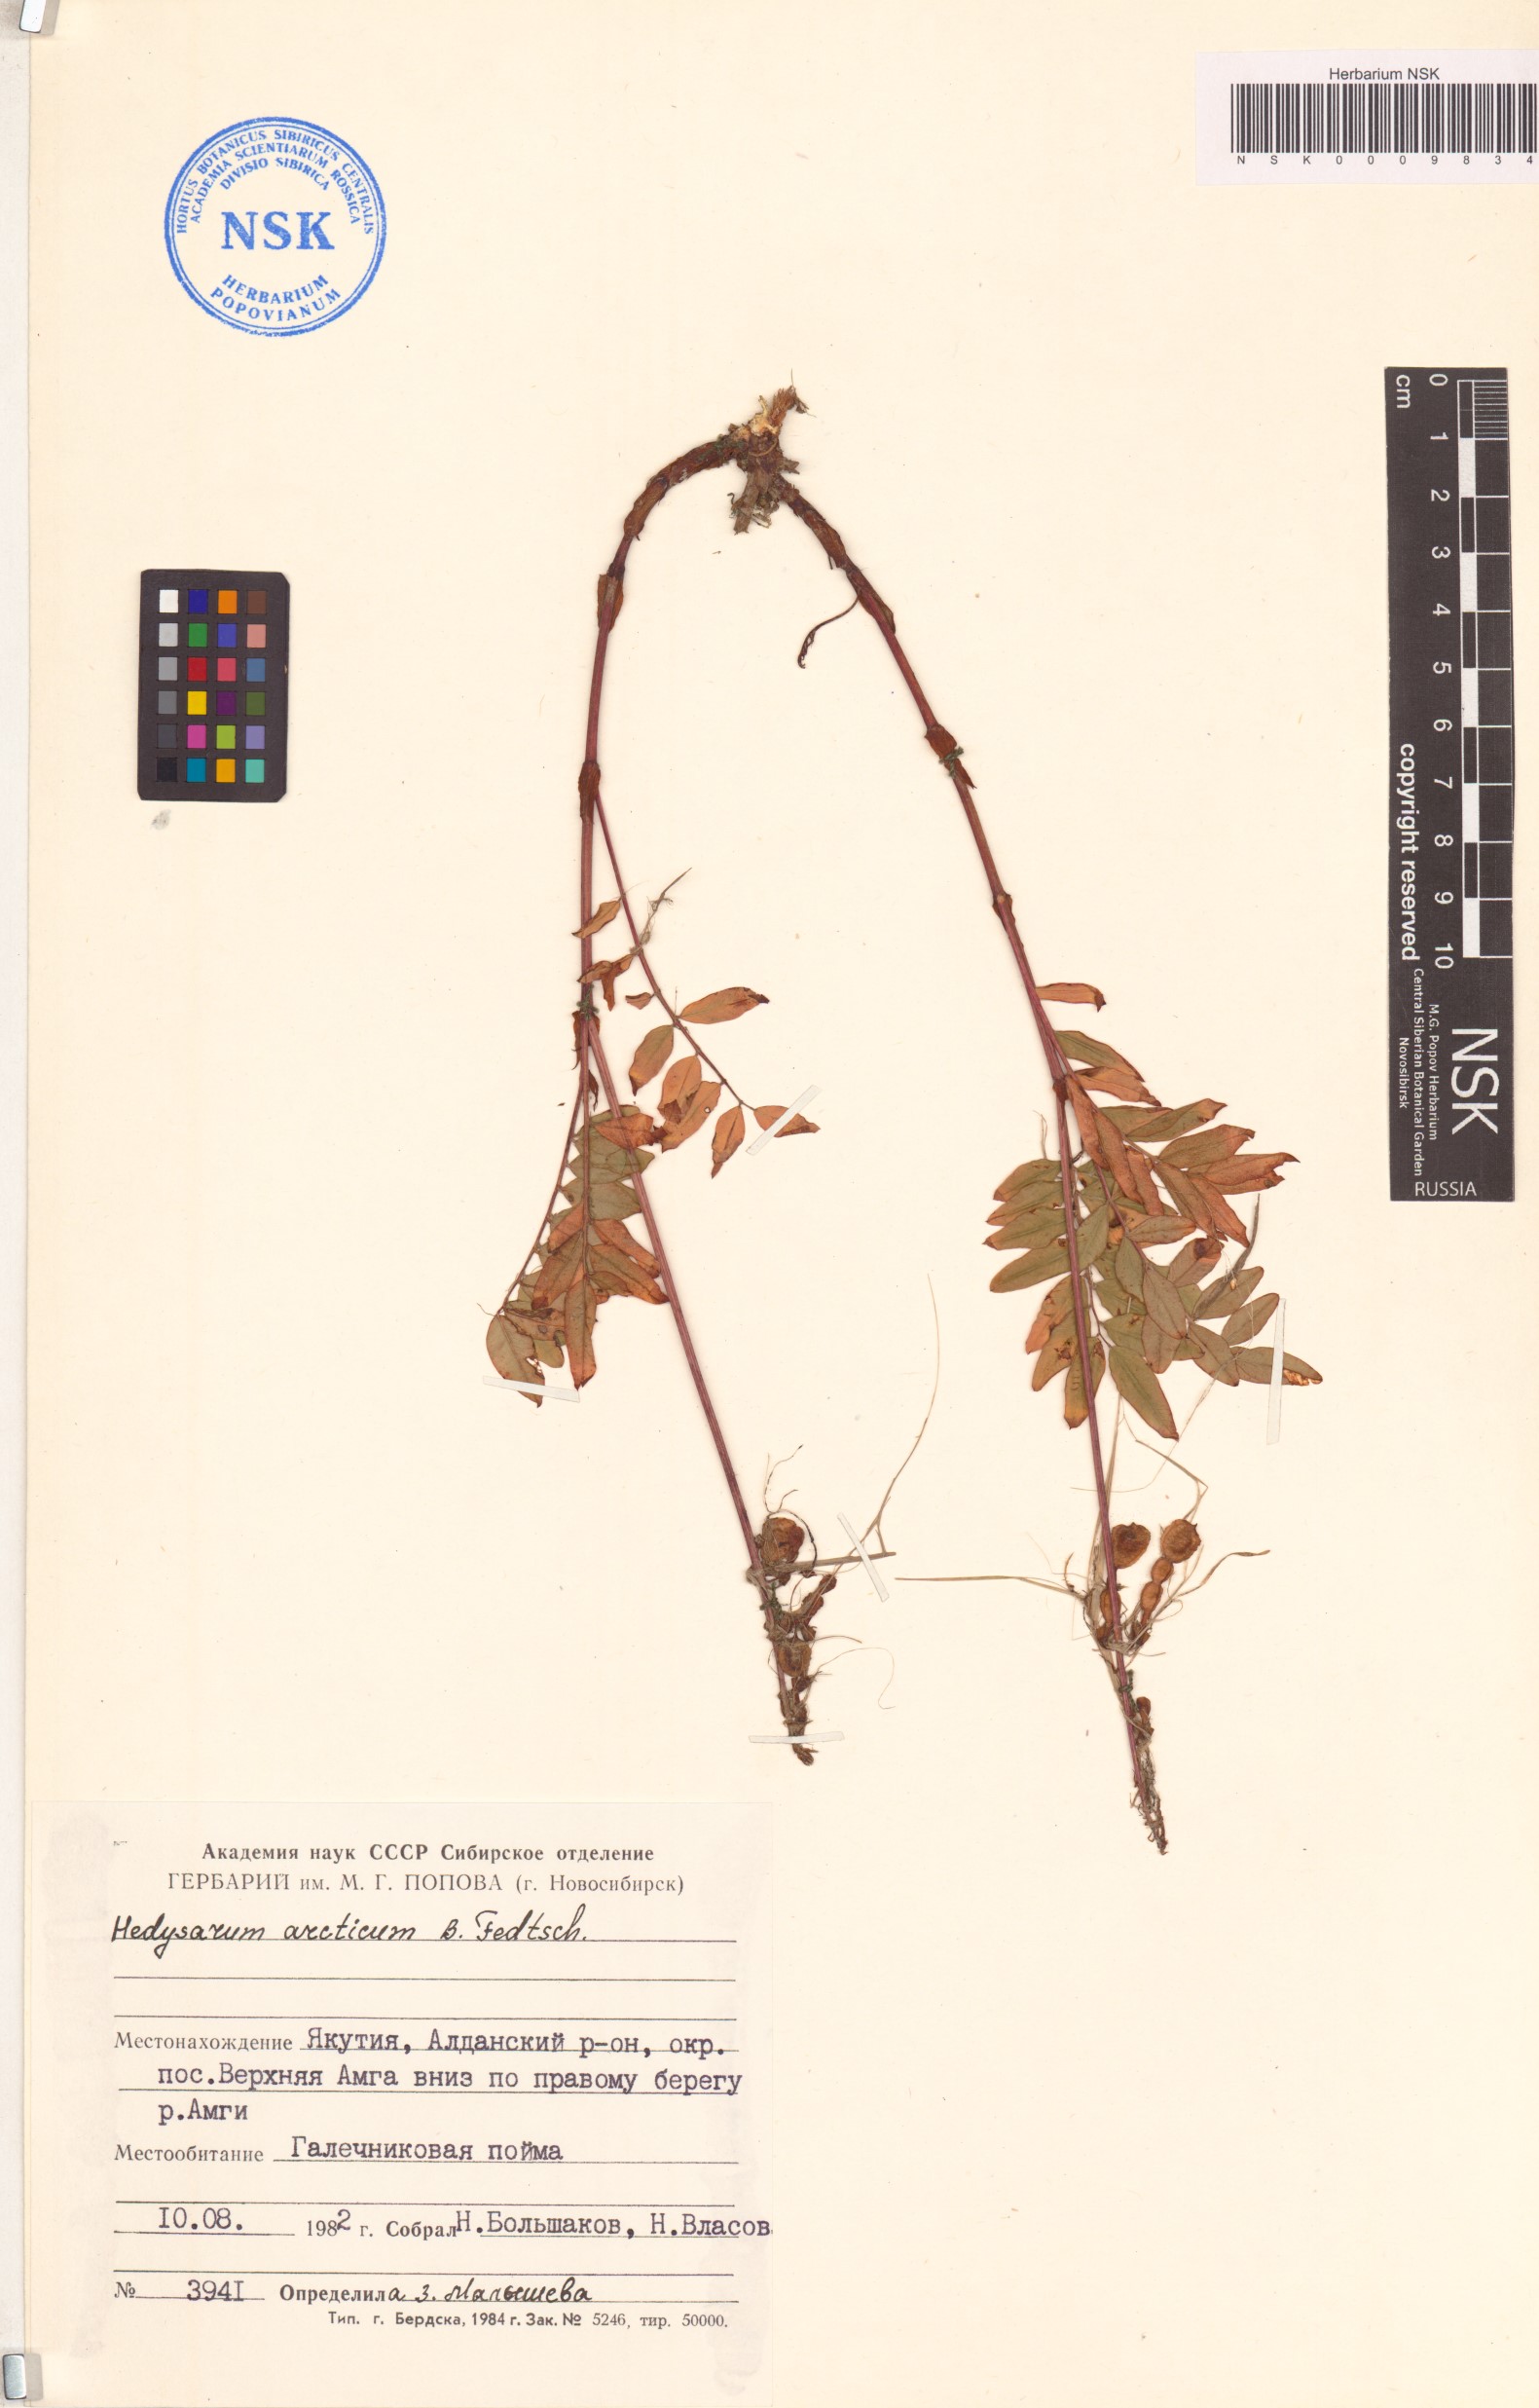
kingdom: Plantae
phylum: Tracheophyta
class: Magnoliopsida
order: Fabales
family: Fabaceae
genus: Hedysarum
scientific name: Hedysarum hedysaroides
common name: Alpine french-honeysuckle
